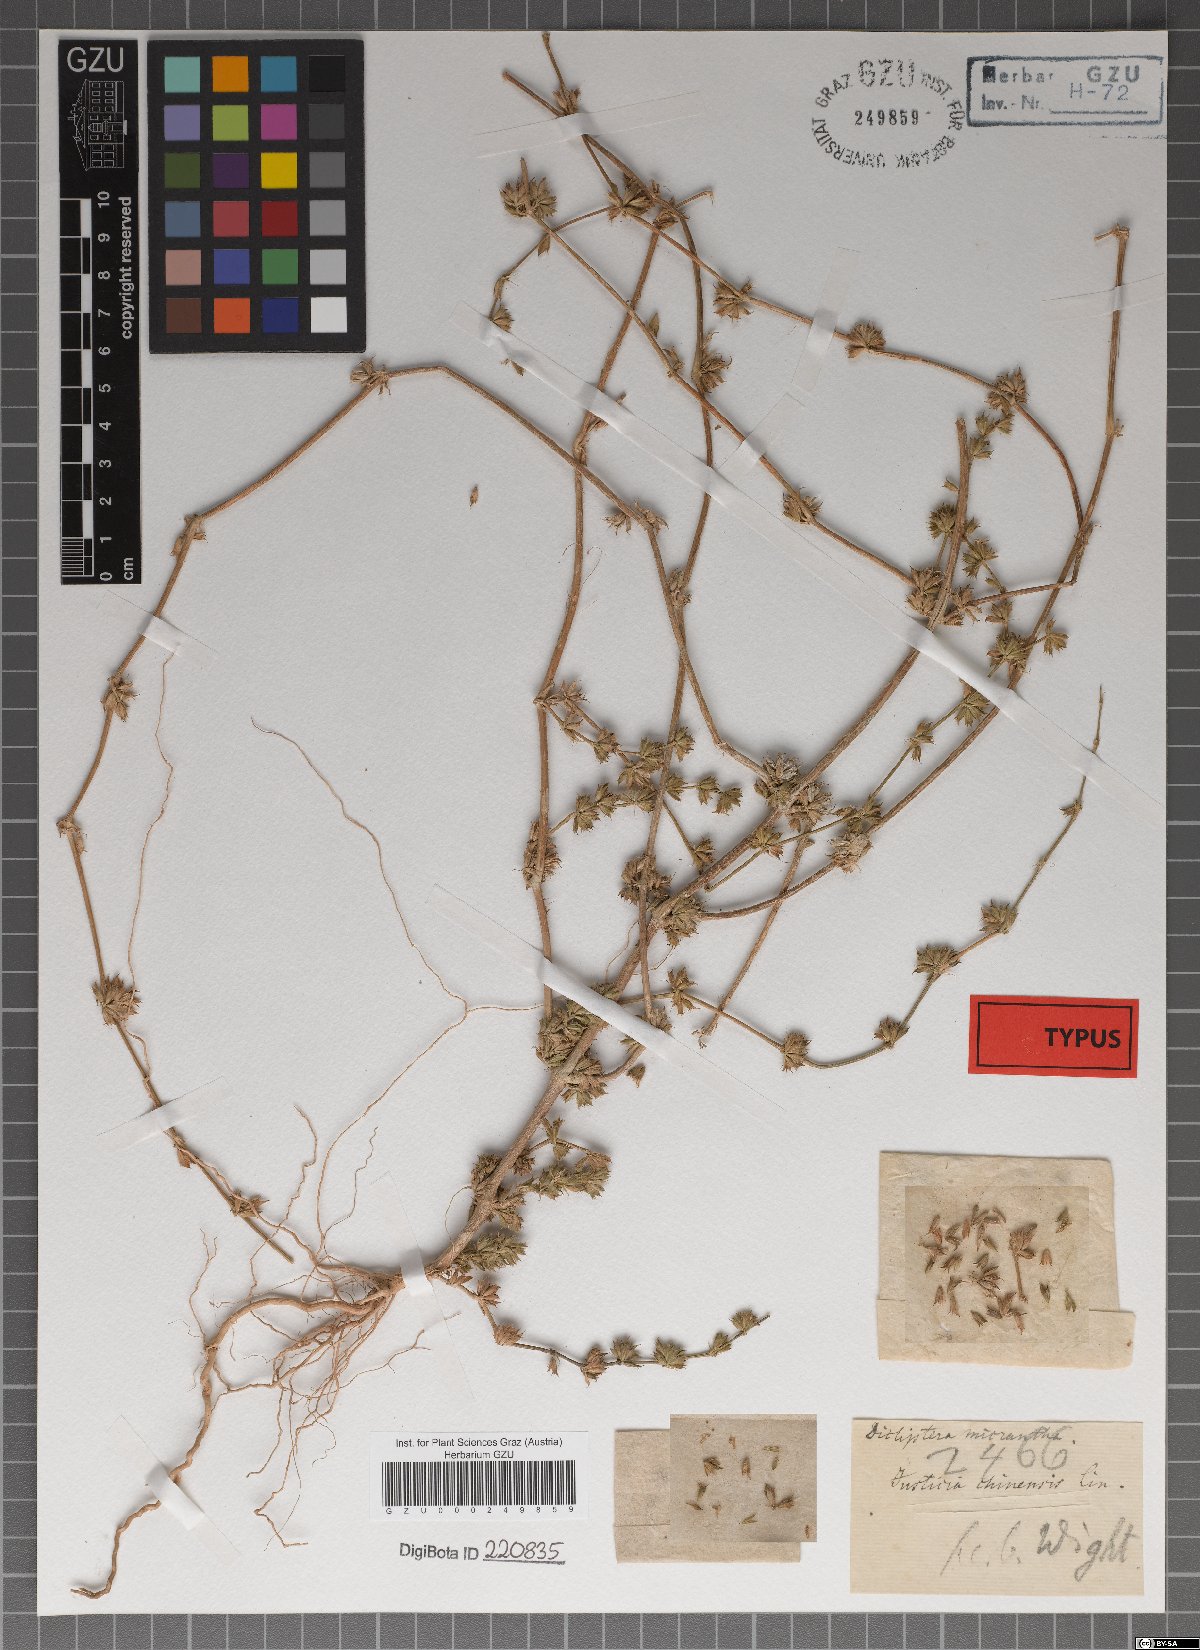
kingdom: Plantae
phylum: Tracheophyta
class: Magnoliopsida
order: Lamiales
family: Acanthaceae
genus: Dicliptera
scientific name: Dicliptera verticillata
